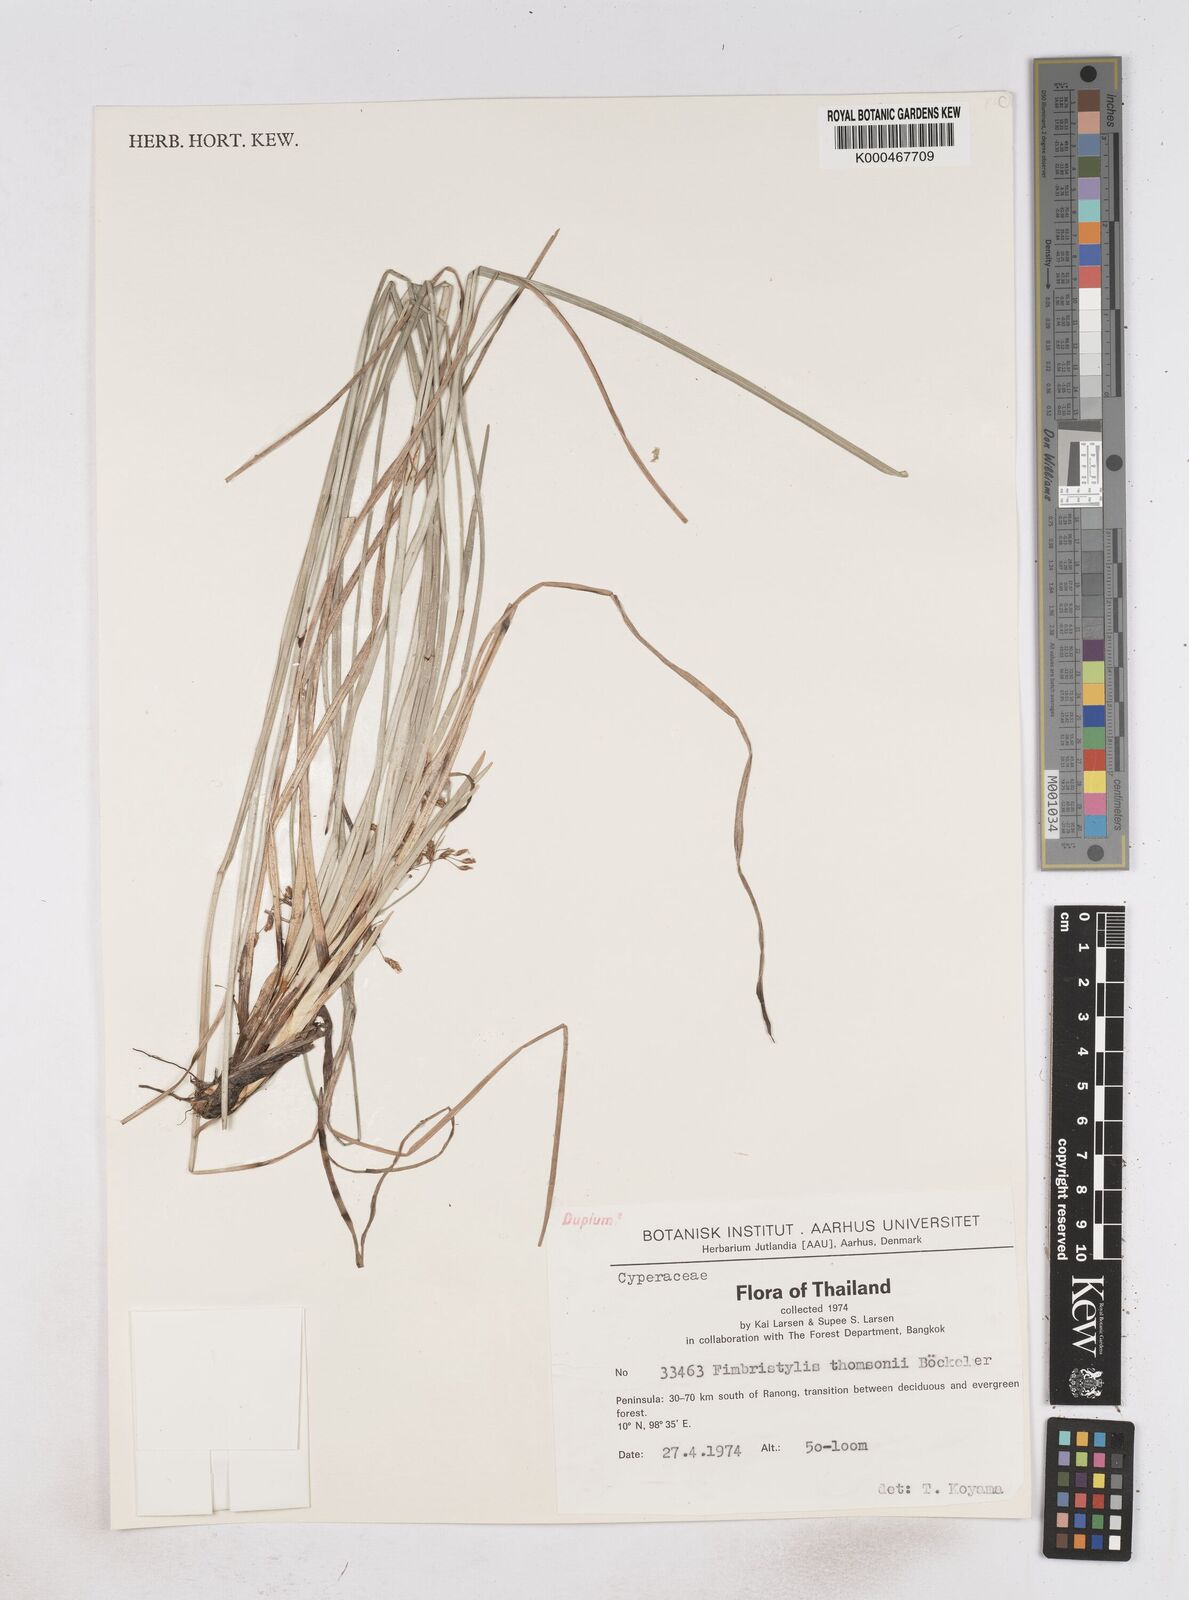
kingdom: Plantae
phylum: Tracheophyta
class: Liliopsida
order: Poales
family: Cyperaceae
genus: Fimbristylis
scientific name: Fimbristylis thomsonii
